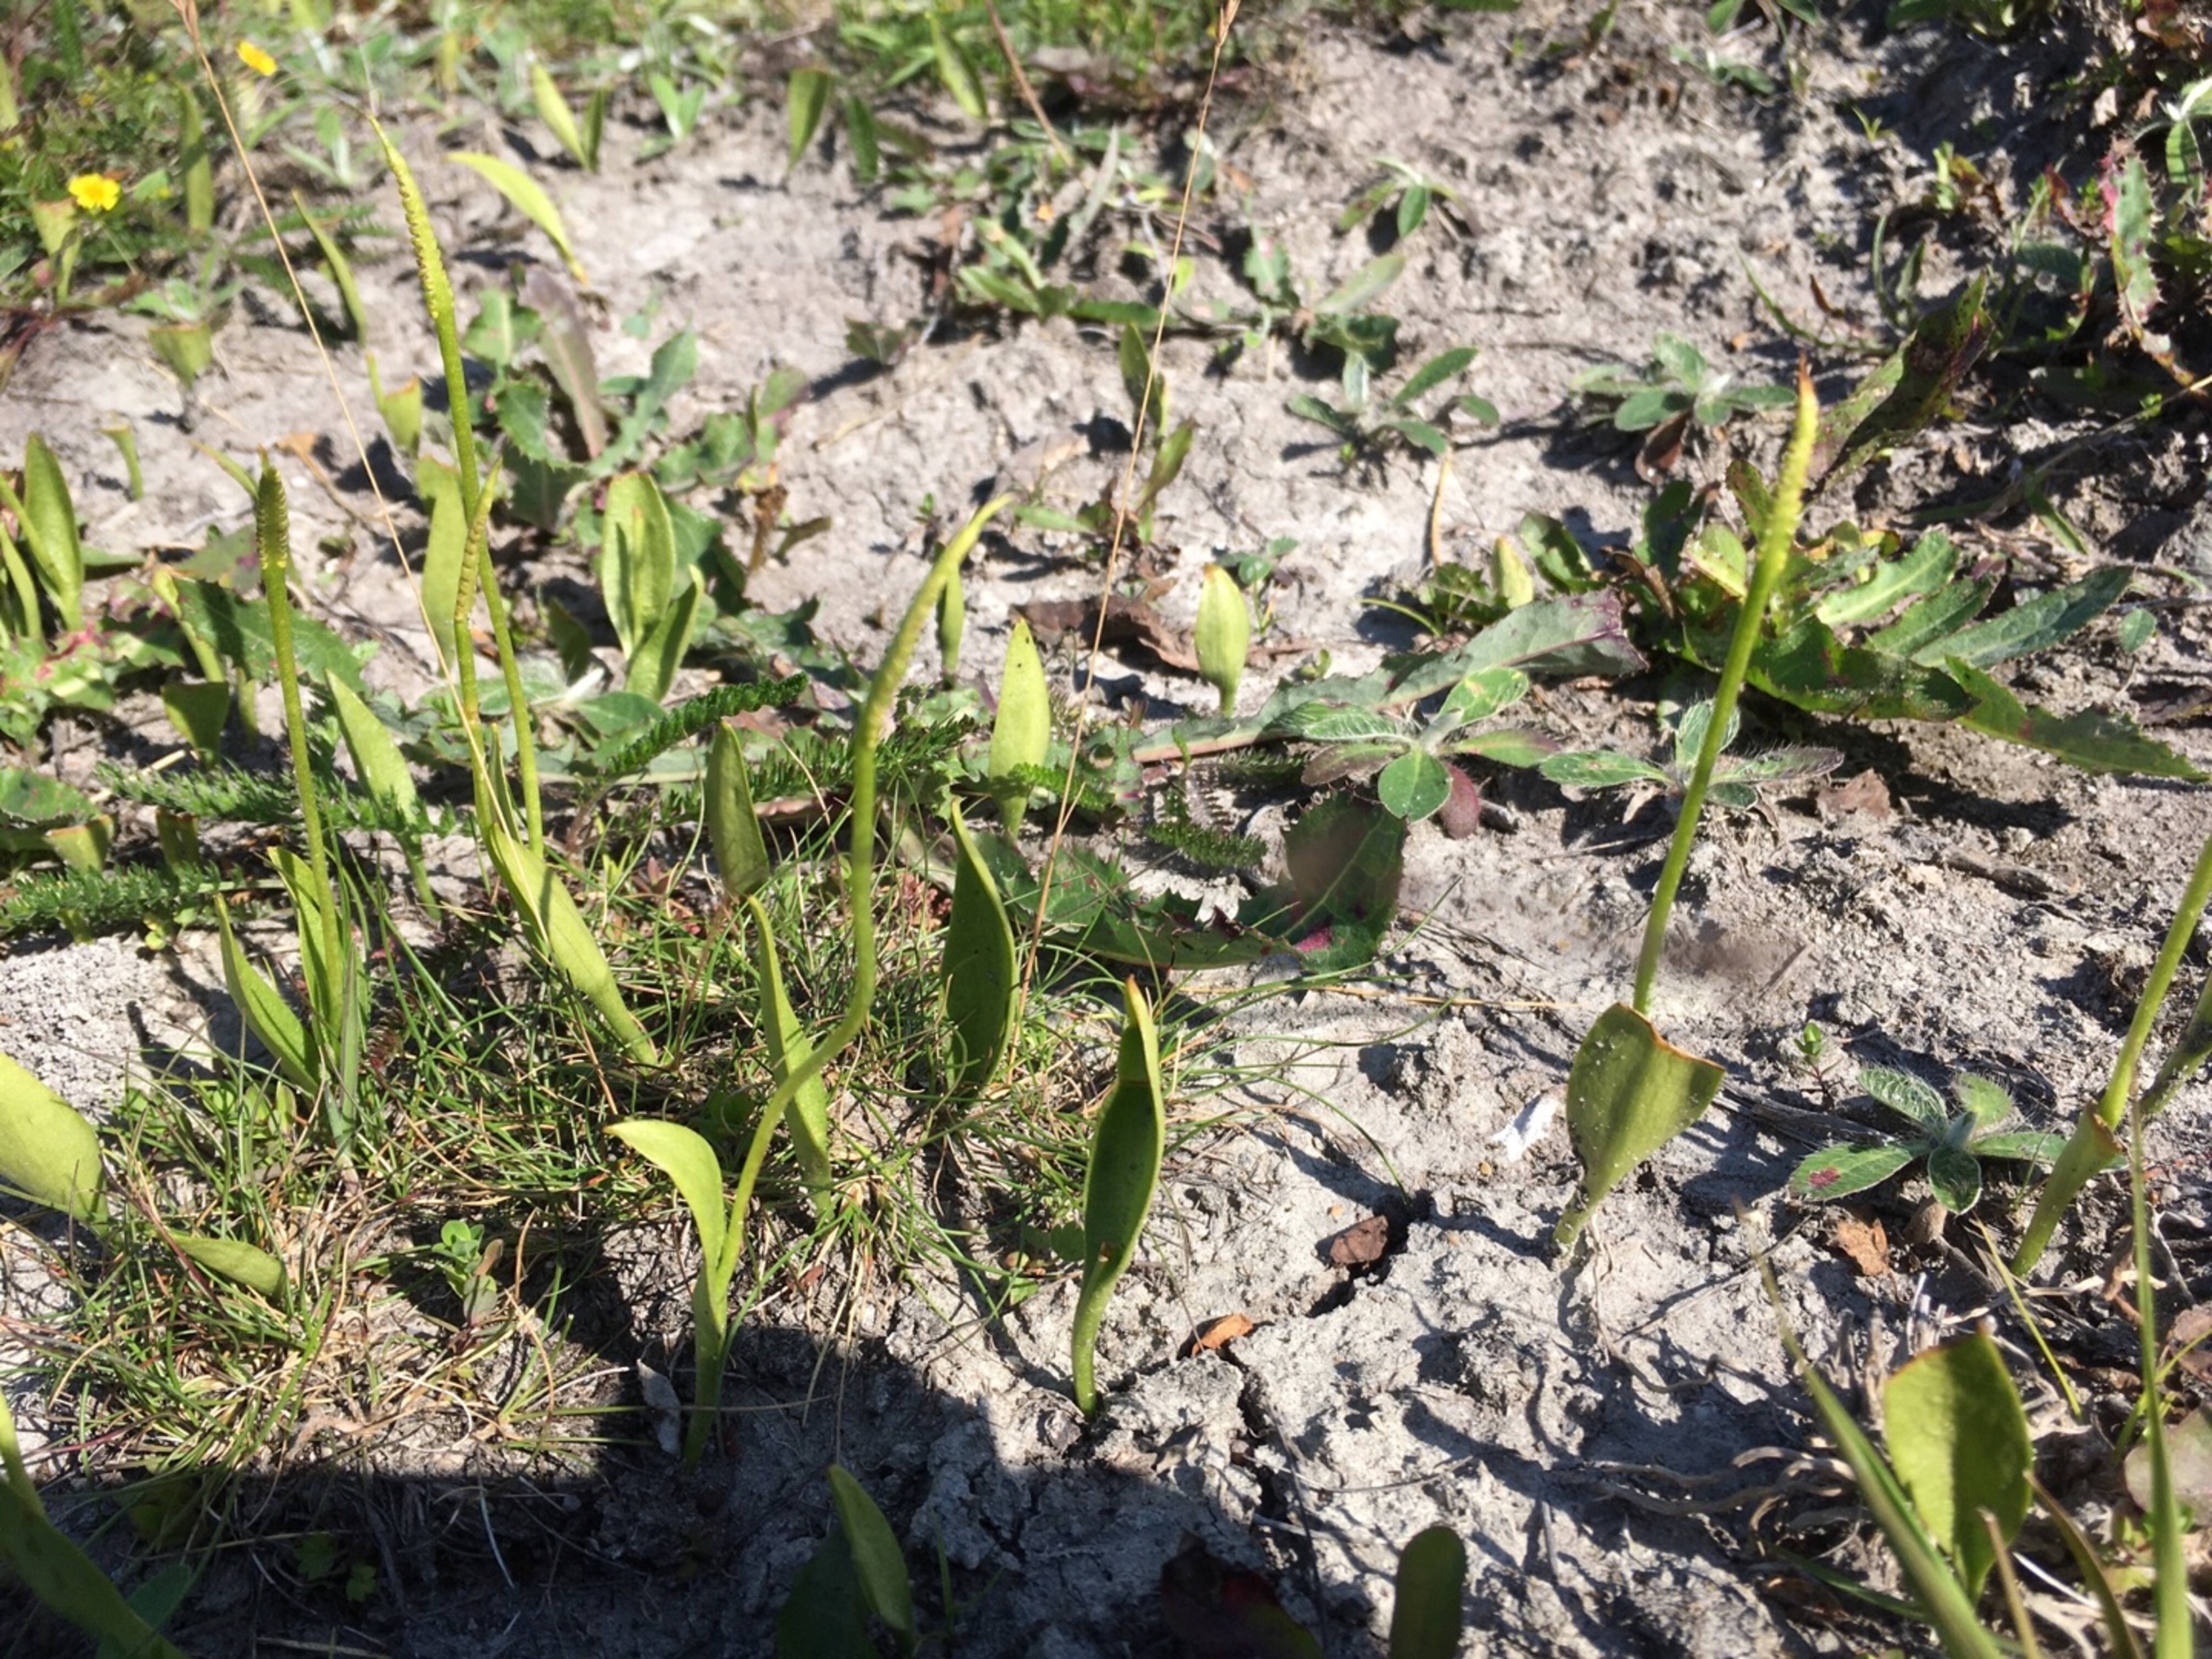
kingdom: Plantae
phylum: Tracheophyta
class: Polypodiopsida
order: Ophioglossales
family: Ophioglossaceae
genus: Ophioglossum
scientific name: Ophioglossum vulgatum
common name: Slangetunge
